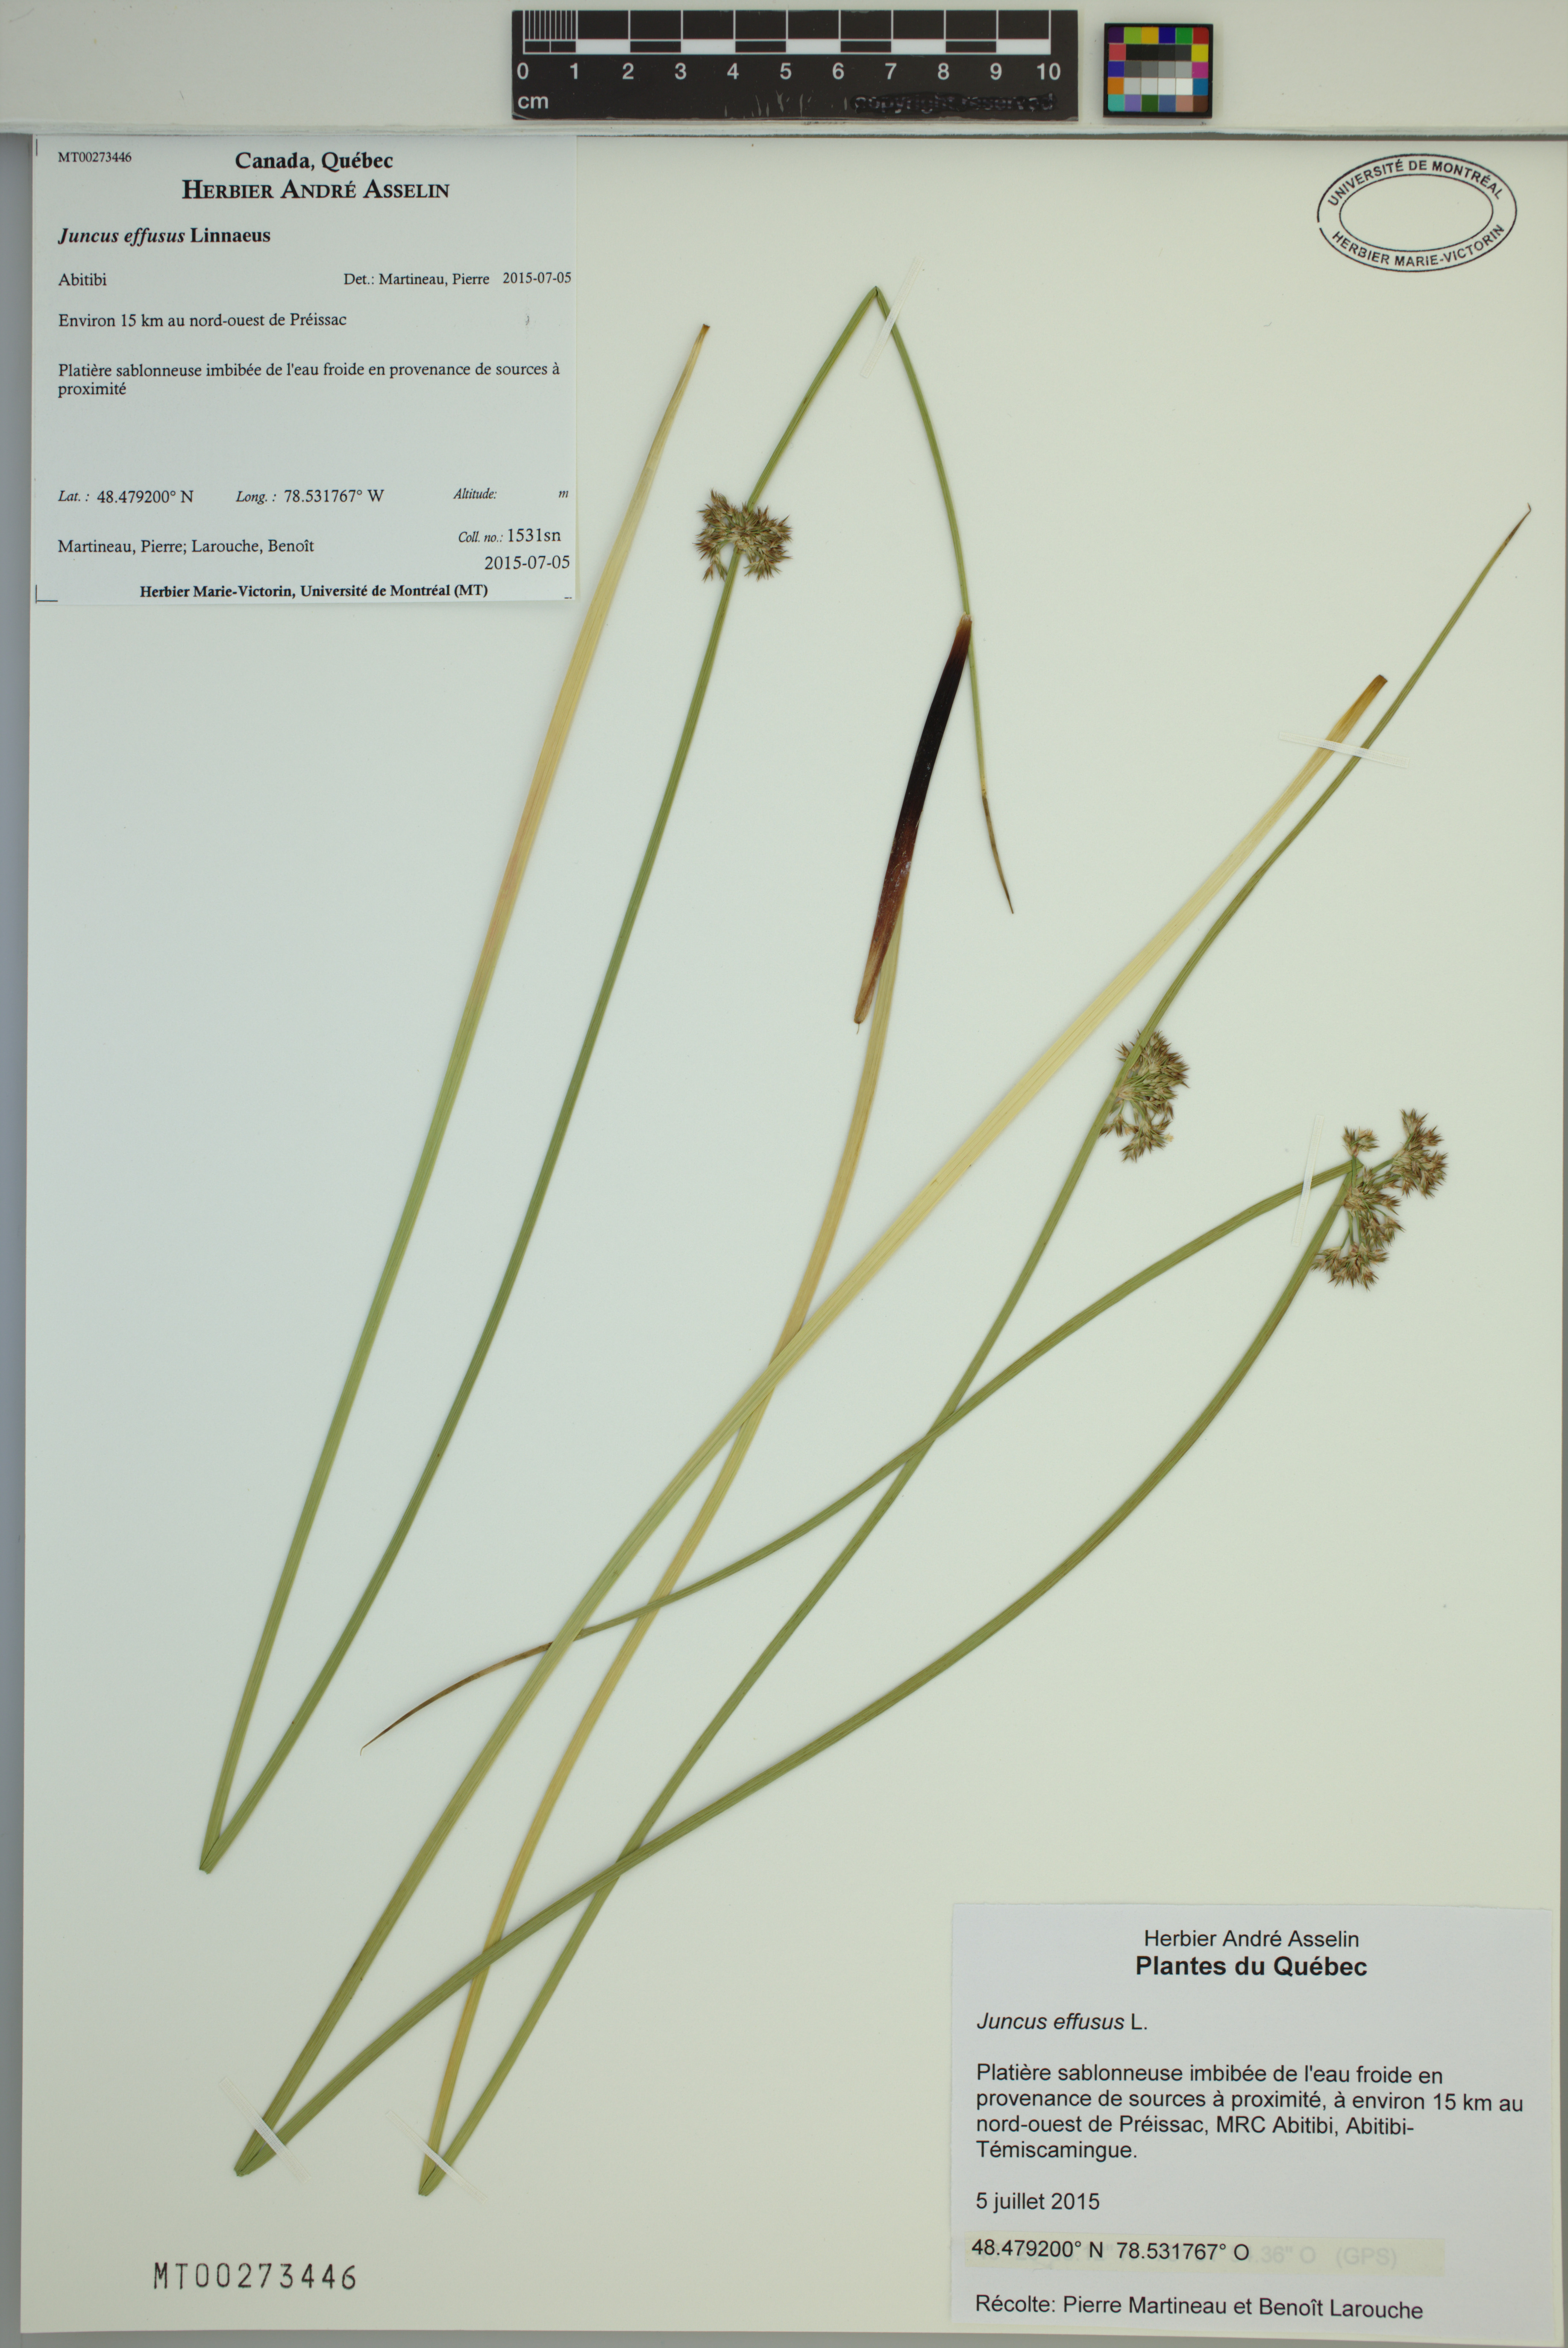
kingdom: Plantae
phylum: Tracheophyta
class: Liliopsida
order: Poales
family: Juncaceae
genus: Juncus
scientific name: Juncus effusus
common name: Soft rush
